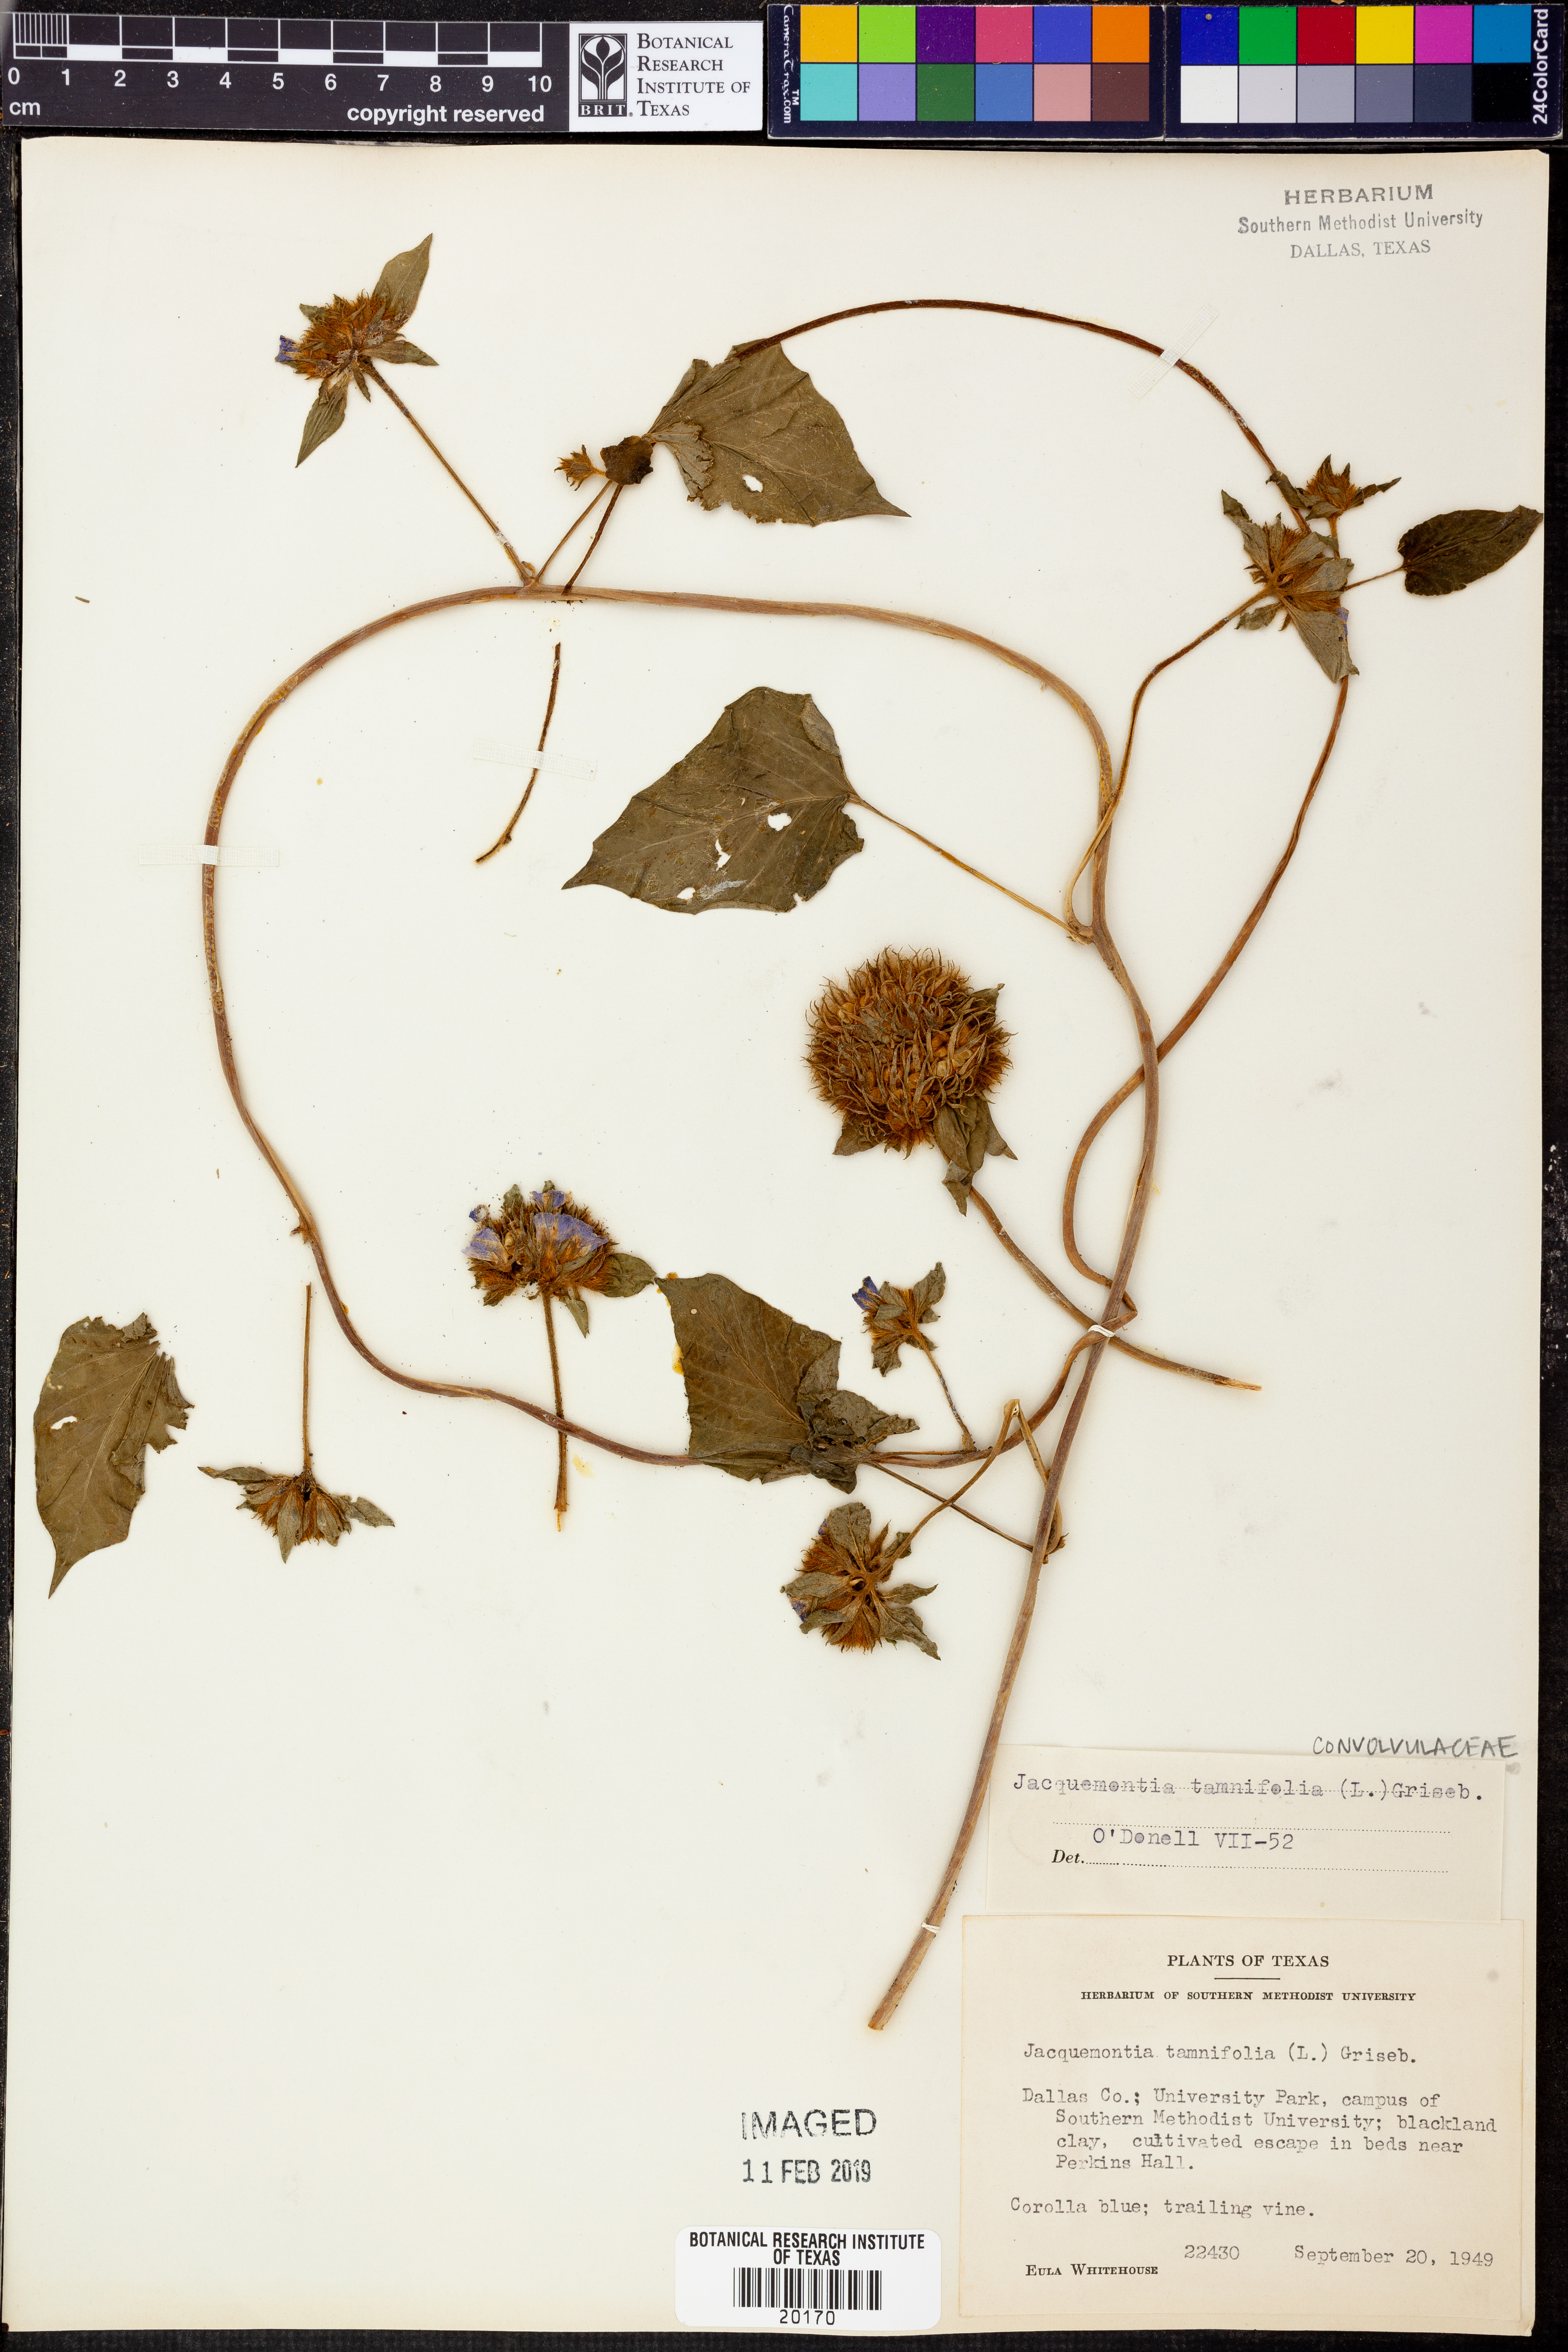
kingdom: Plantae
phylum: Tracheophyta
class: Magnoliopsida
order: Solanales
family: Convolvulaceae
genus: Jacquemontia
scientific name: Jacquemontia tamnifolia
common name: Hairy clustervine
